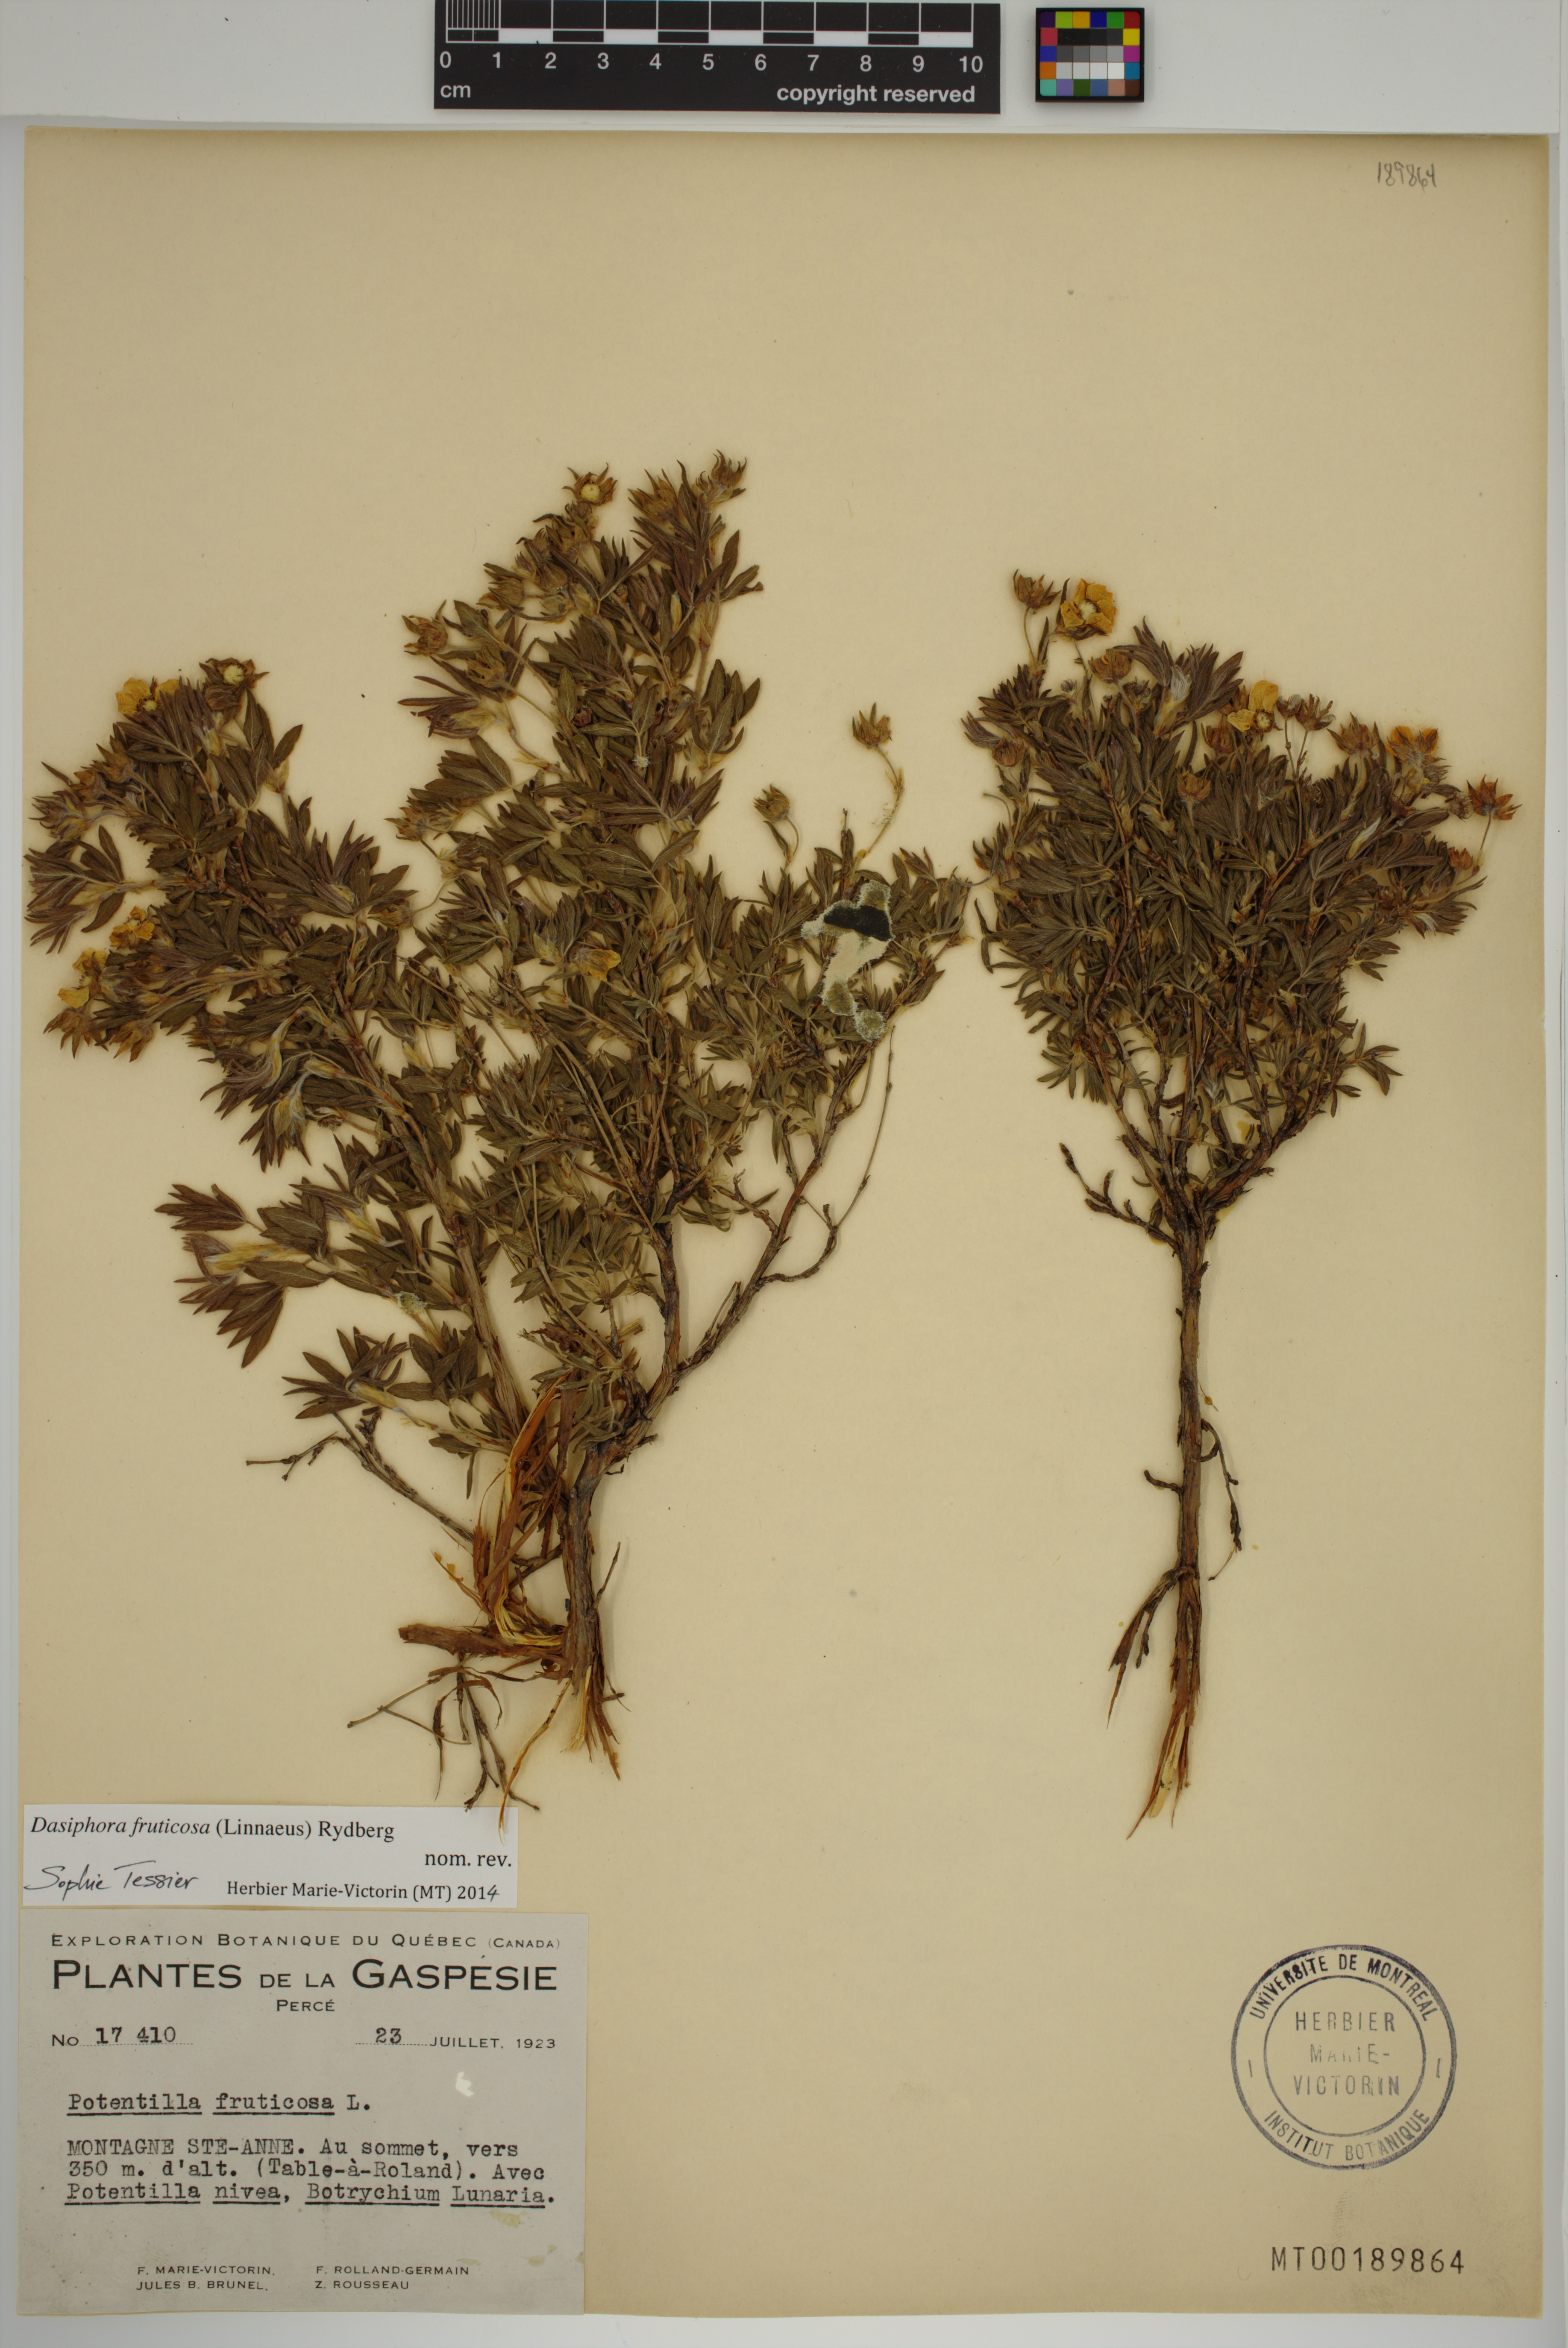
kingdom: Plantae
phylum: Tracheophyta
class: Magnoliopsida
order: Rosales
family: Rosaceae
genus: Dasiphora
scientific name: Dasiphora fruticosa
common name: Shrubby cinquefoil
